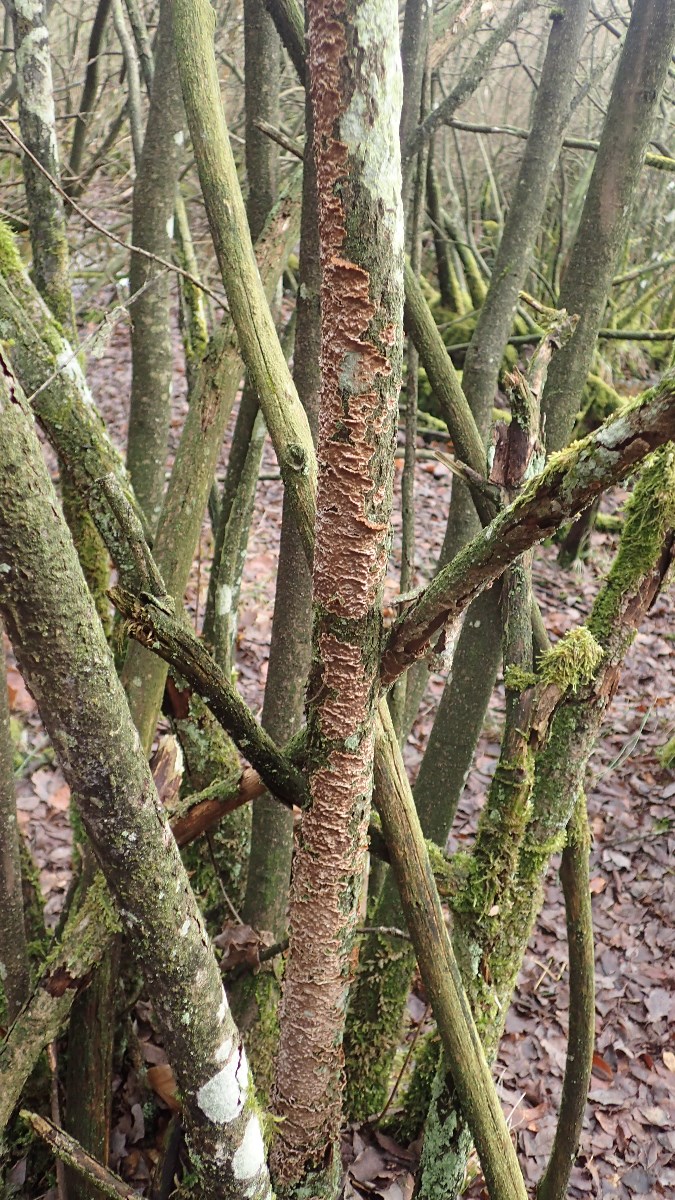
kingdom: Fungi
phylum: Basidiomycota
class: Agaricomycetes
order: Hymenochaetales
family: Hymenochaetaceae
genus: Hydnoporia
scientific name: Hydnoporia tabacina
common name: tobaksbrun ruslædersvamp
